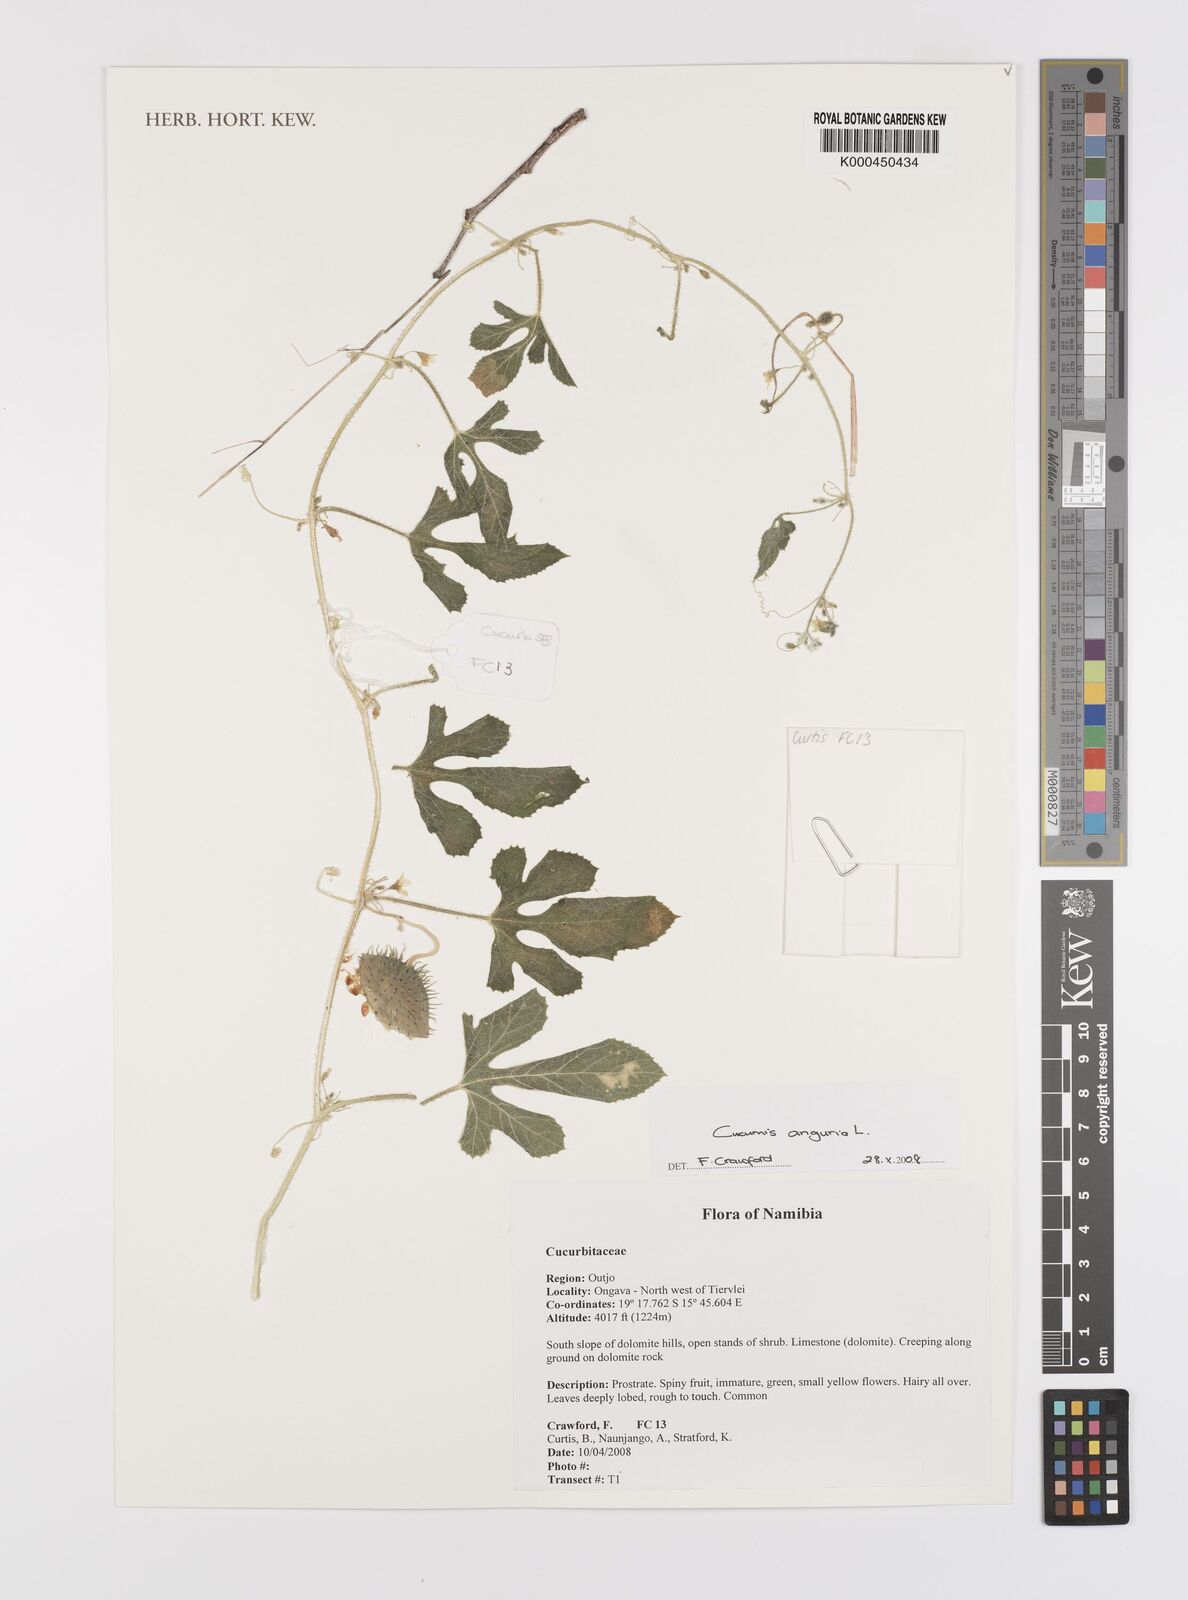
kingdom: Plantae
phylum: Tracheophyta
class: Magnoliopsida
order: Cucurbitales
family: Cucurbitaceae
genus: Cucumis
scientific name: Cucumis anguria
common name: West indian gherkin
